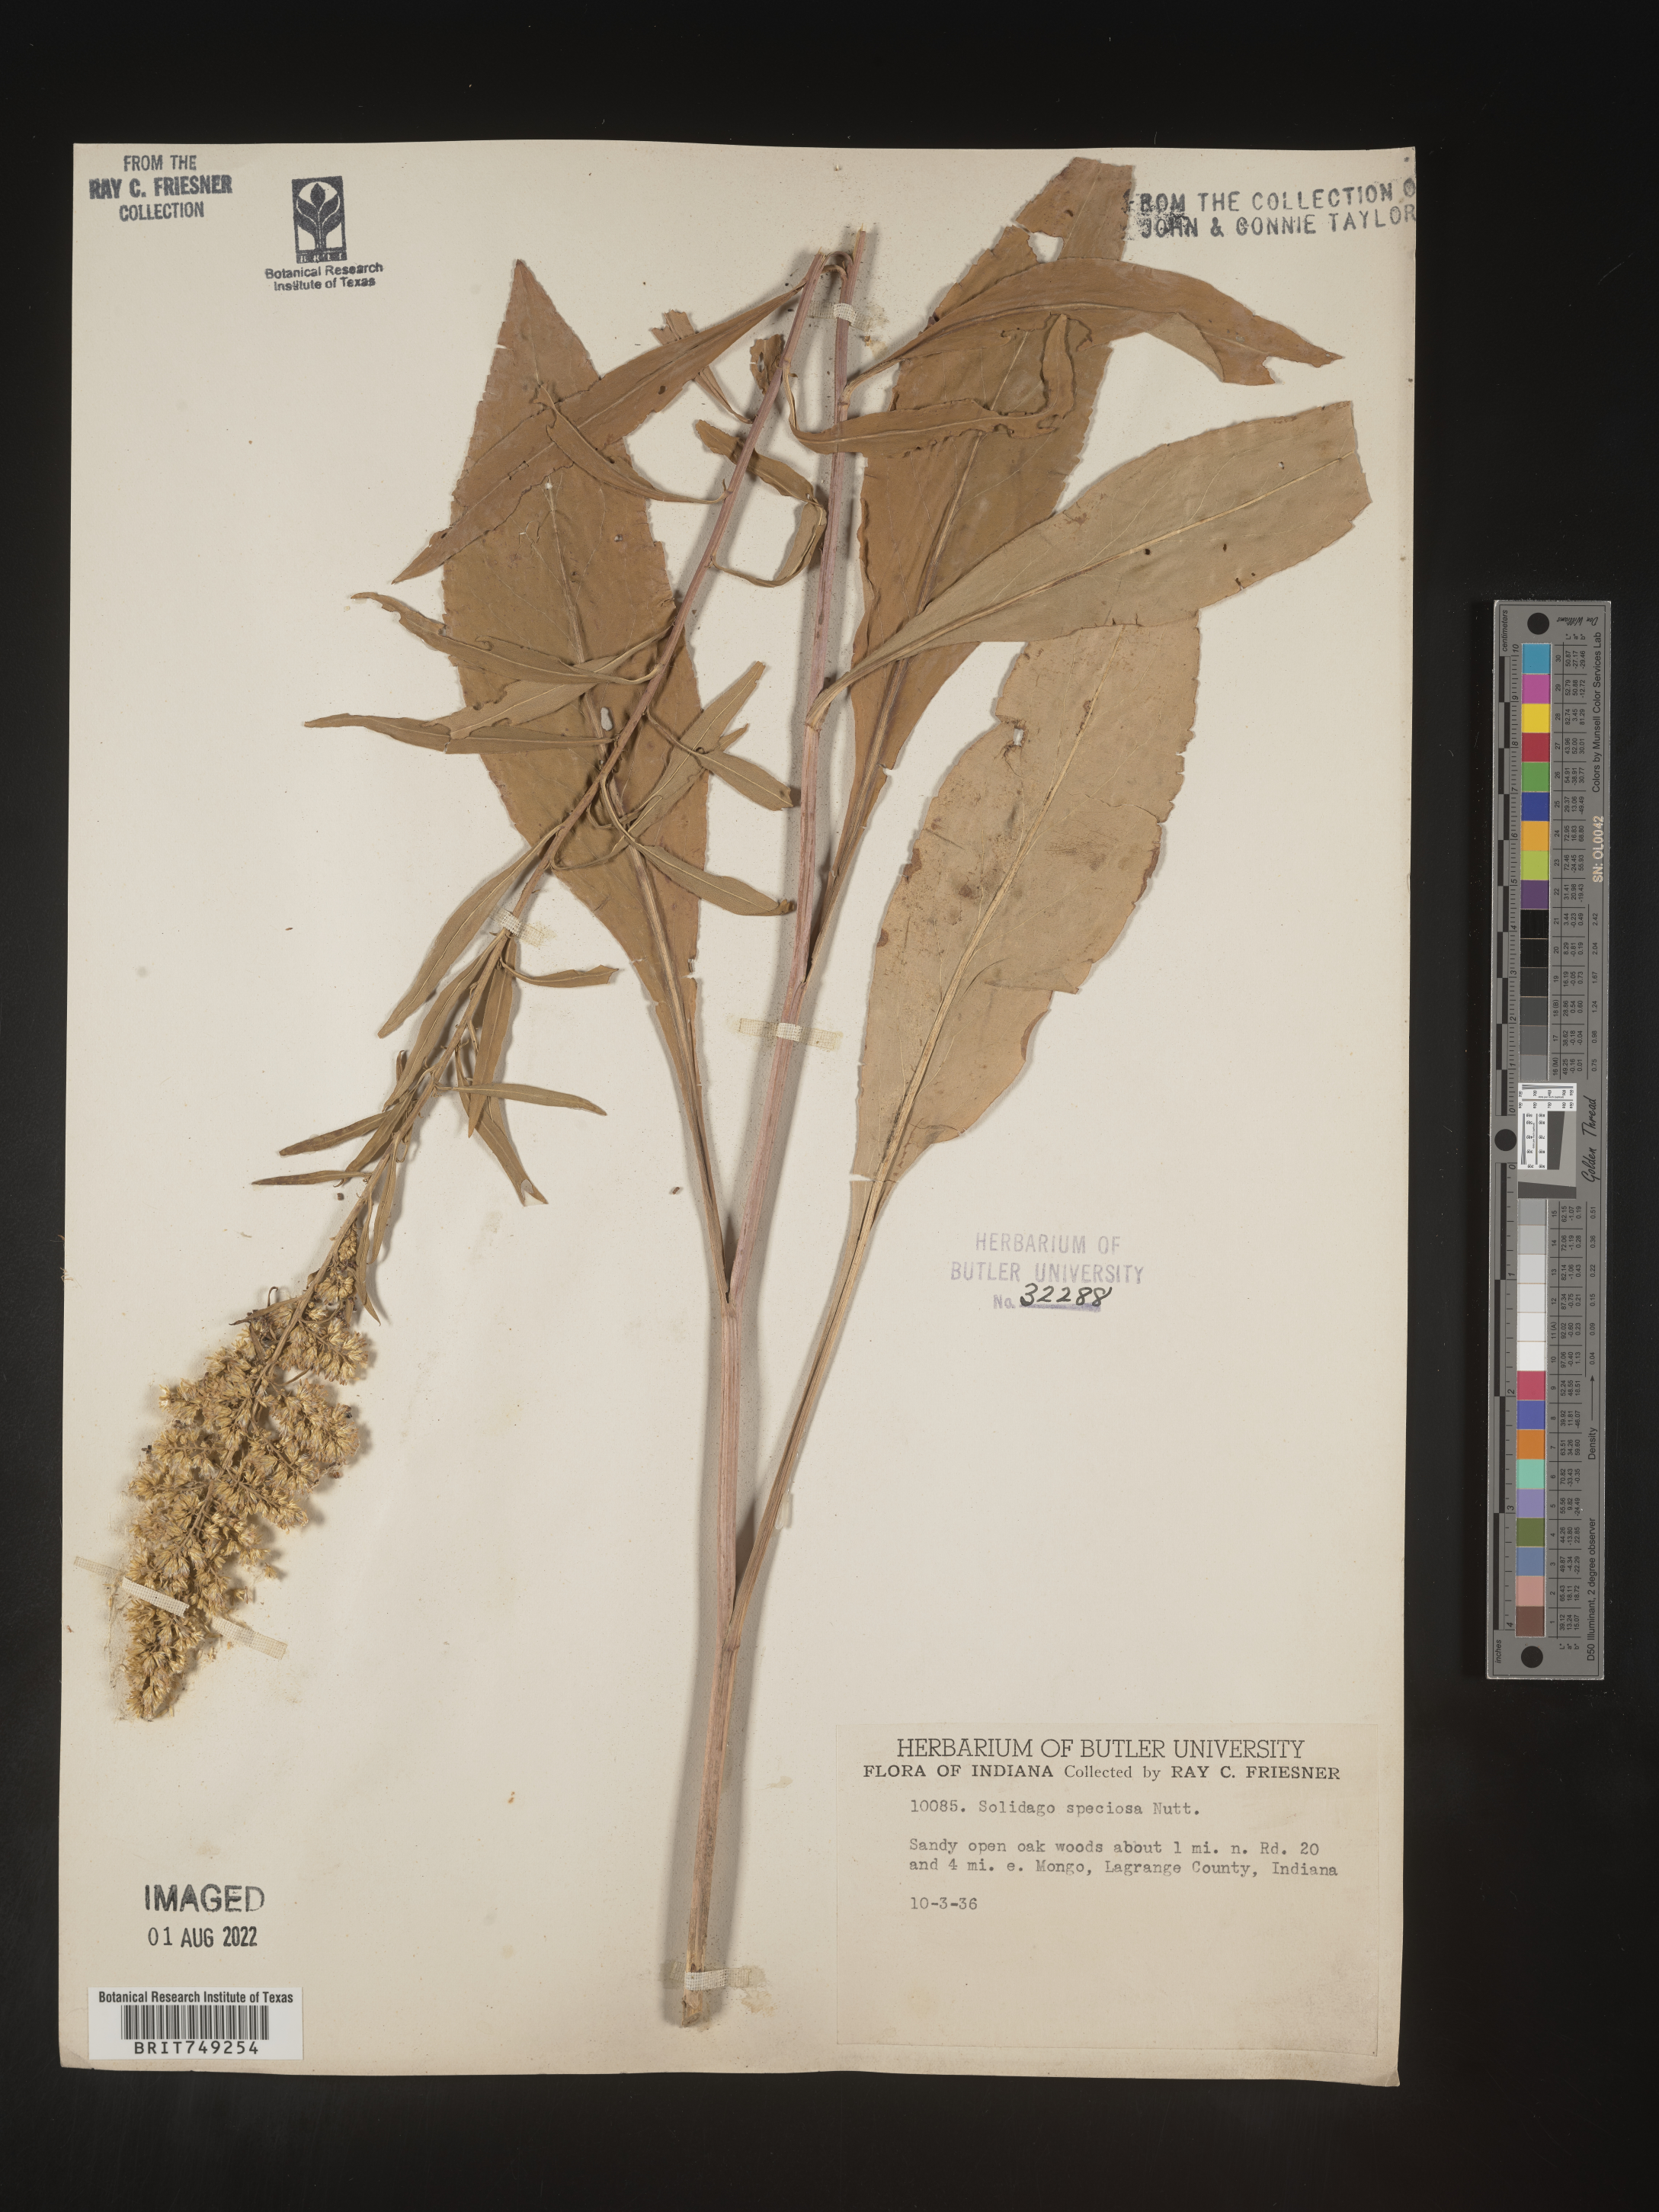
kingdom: Plantae
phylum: Tracheophyta
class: Magnoliopsida
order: Asterales
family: Asteraceae
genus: Solidago
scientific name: Solidago speciosa
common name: Showy goldenrod
